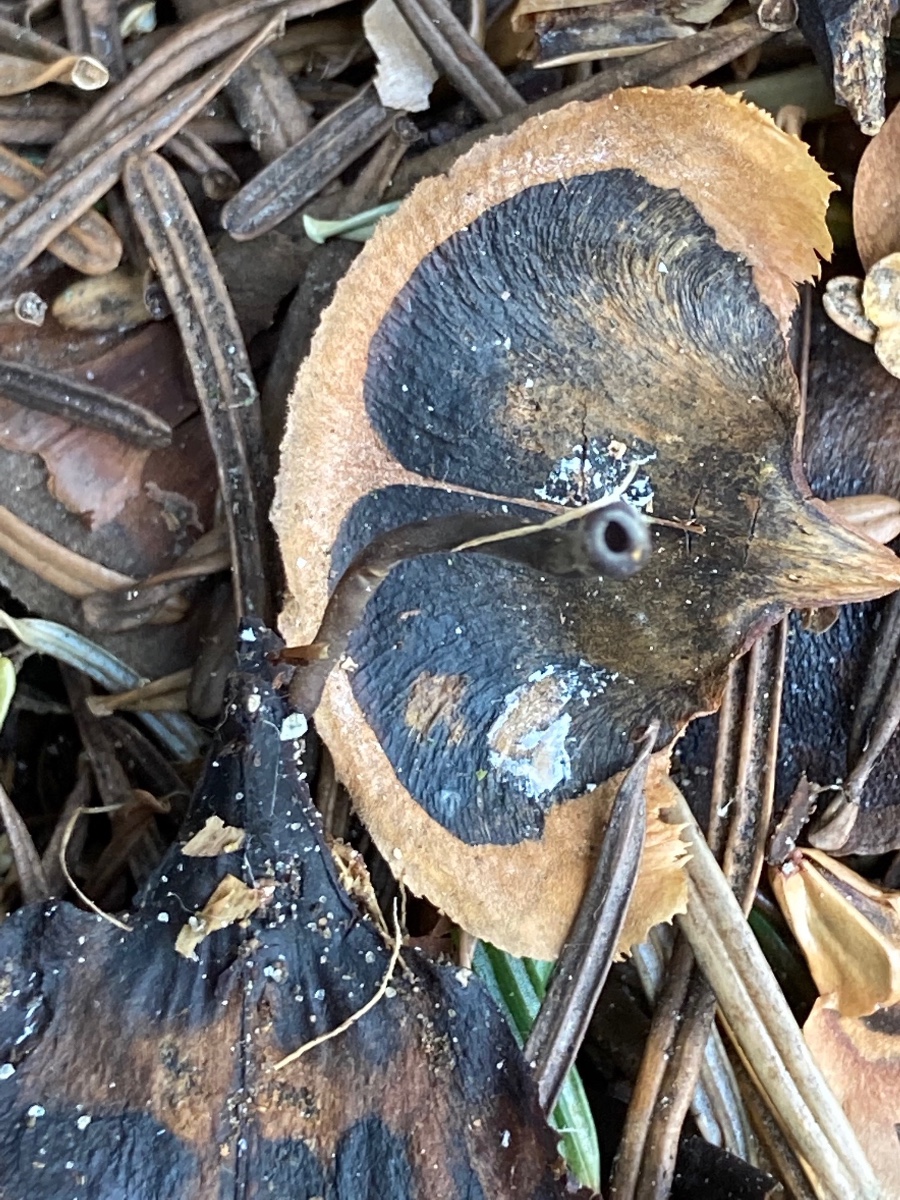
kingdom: Fungi
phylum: Ascomycota
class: Leotiomycetes
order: Helotiales
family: Sclerotiniaceae
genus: Ciboria
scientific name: Ciboria rufofusca
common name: kogleskæl-knoldskive
